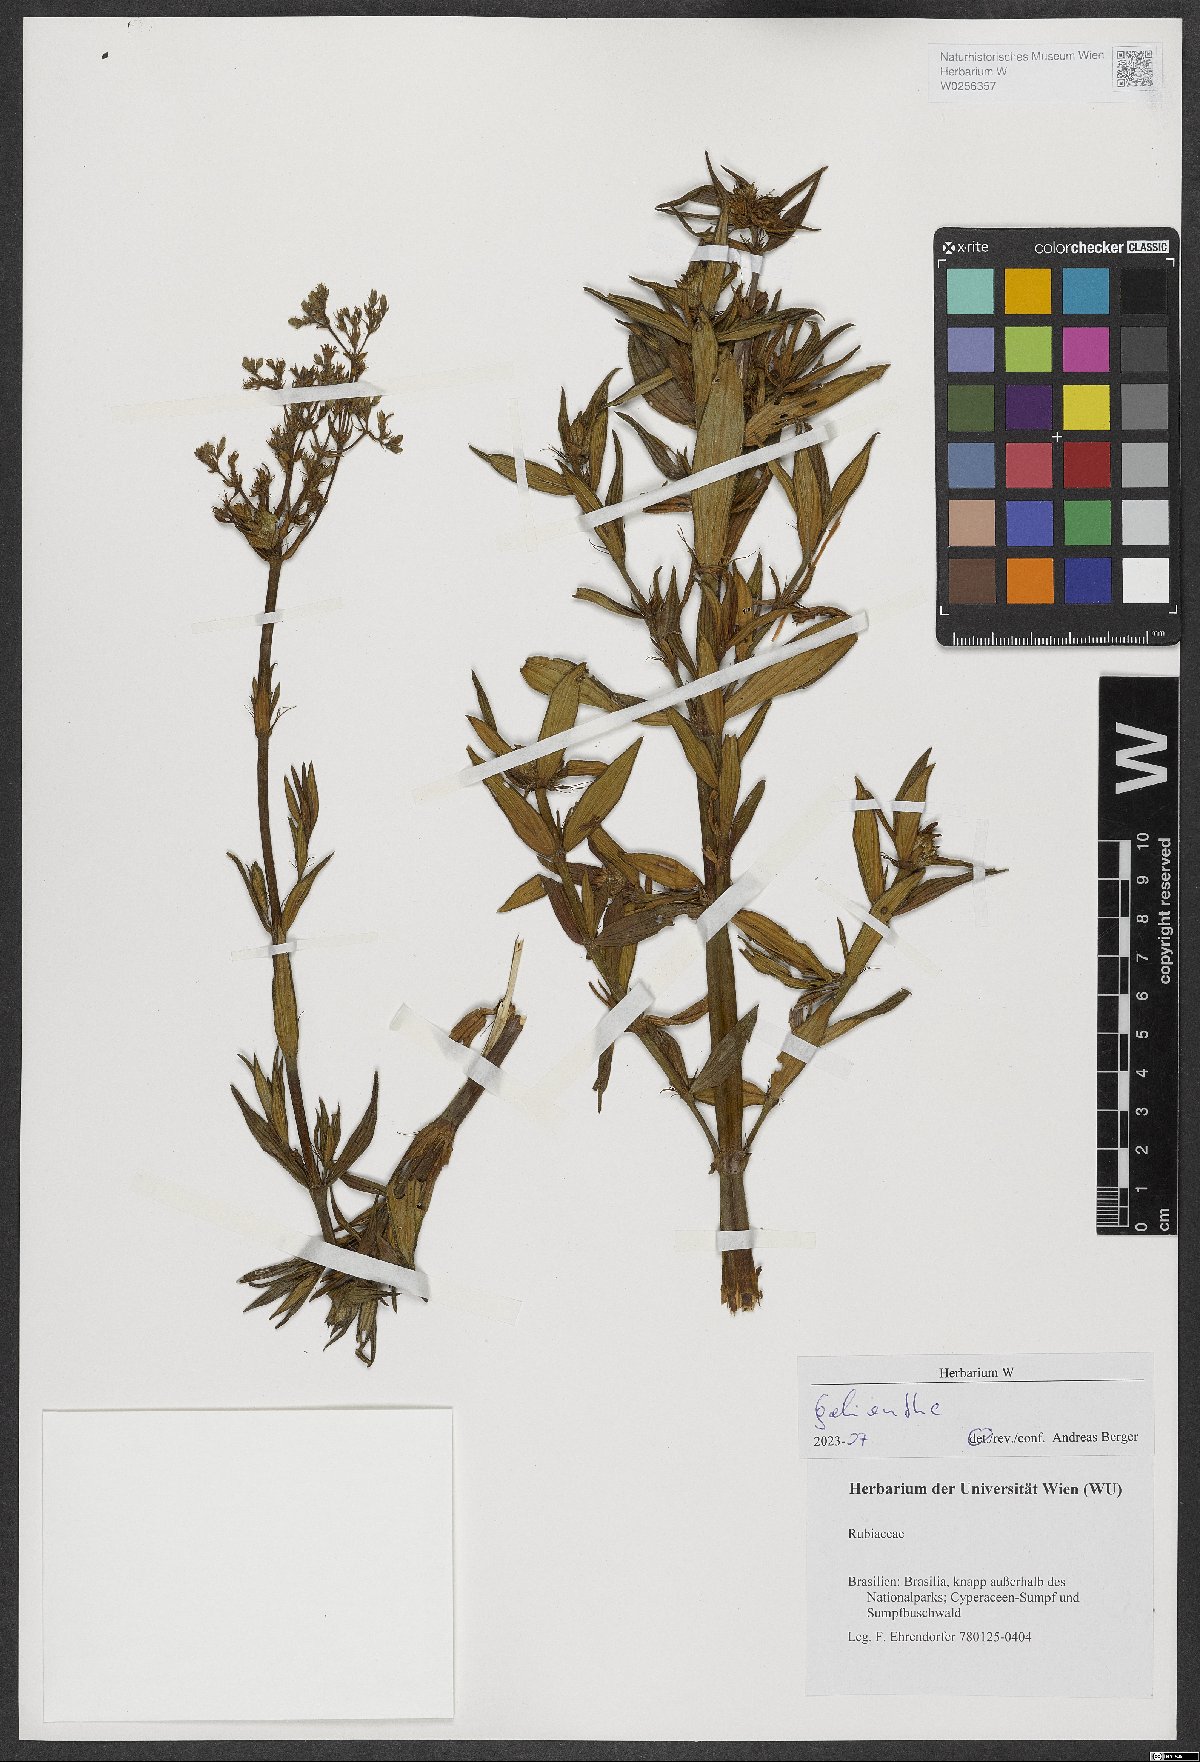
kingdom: Plantae
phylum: Tracheophyta
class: Magnoliopsida
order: Gentianales
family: Rubiaceae
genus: Galianthe
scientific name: Galianthe
